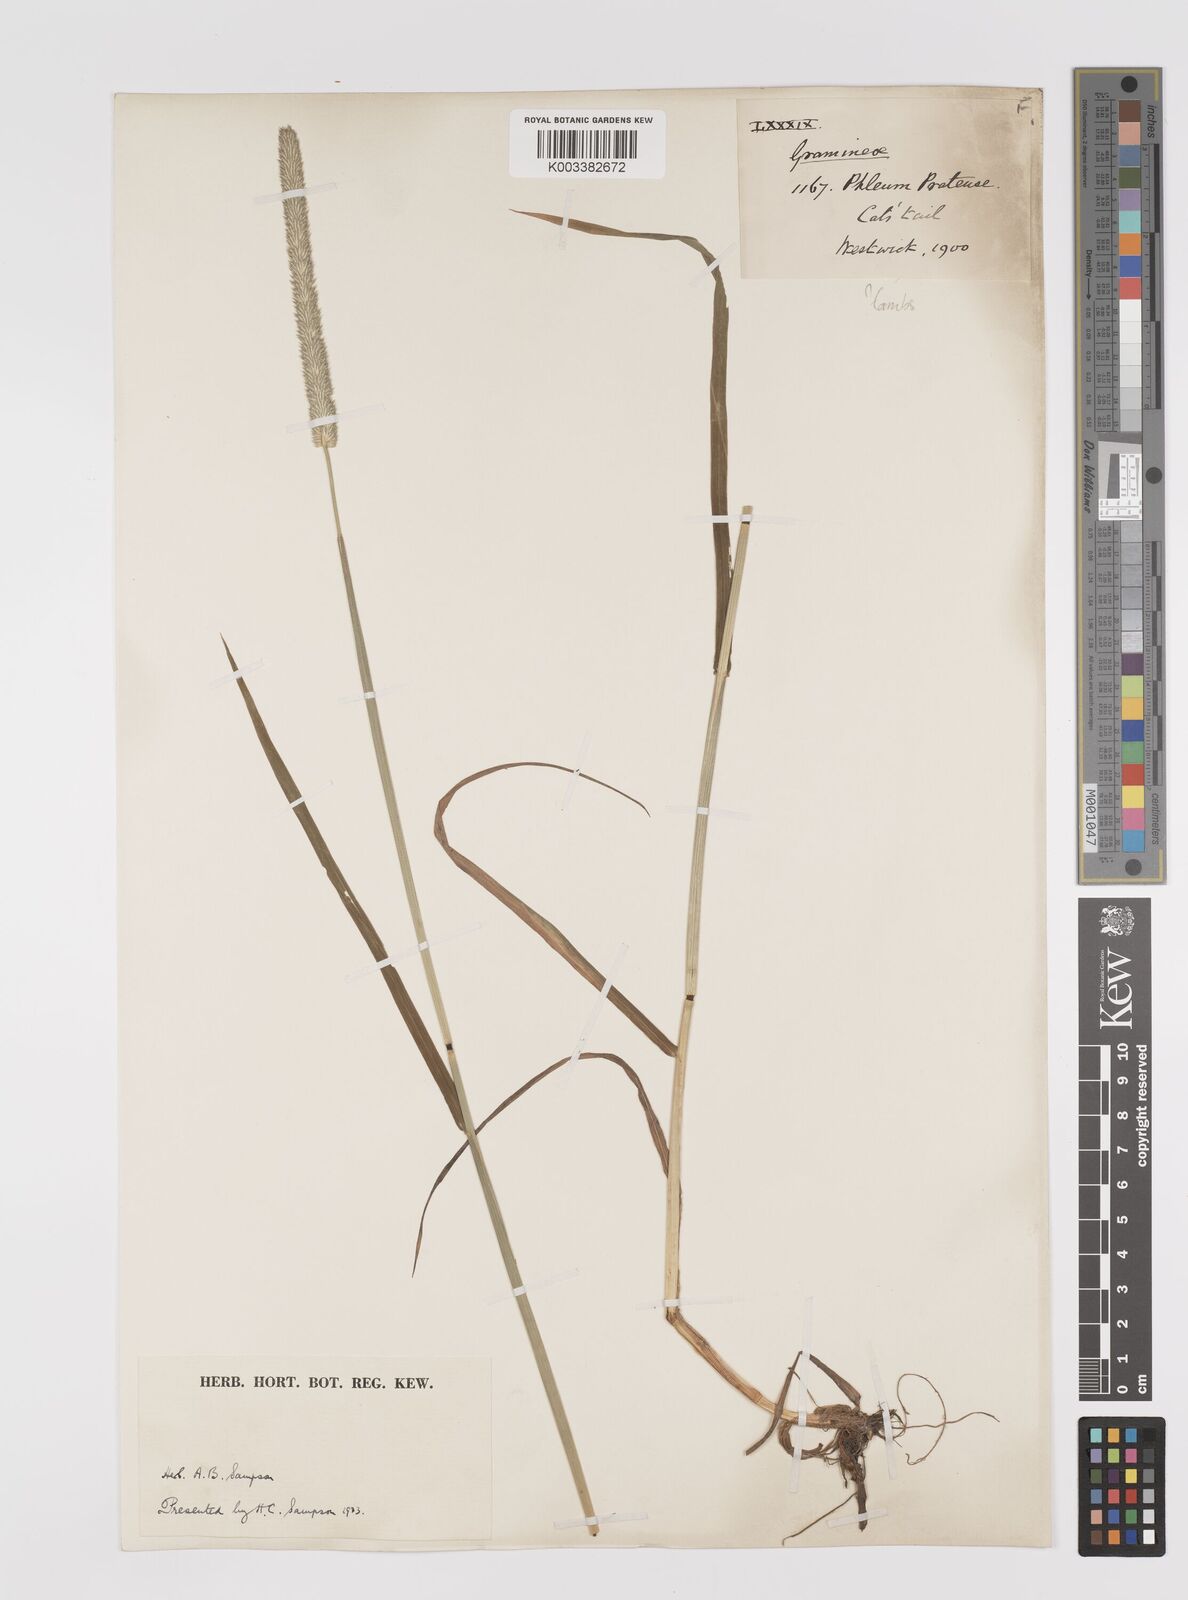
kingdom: Plantae
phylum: Tracheophyta
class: Liliopsida
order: Poales
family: Poaceae
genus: Phleum
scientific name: Phleum pratense
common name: Timothy grass
